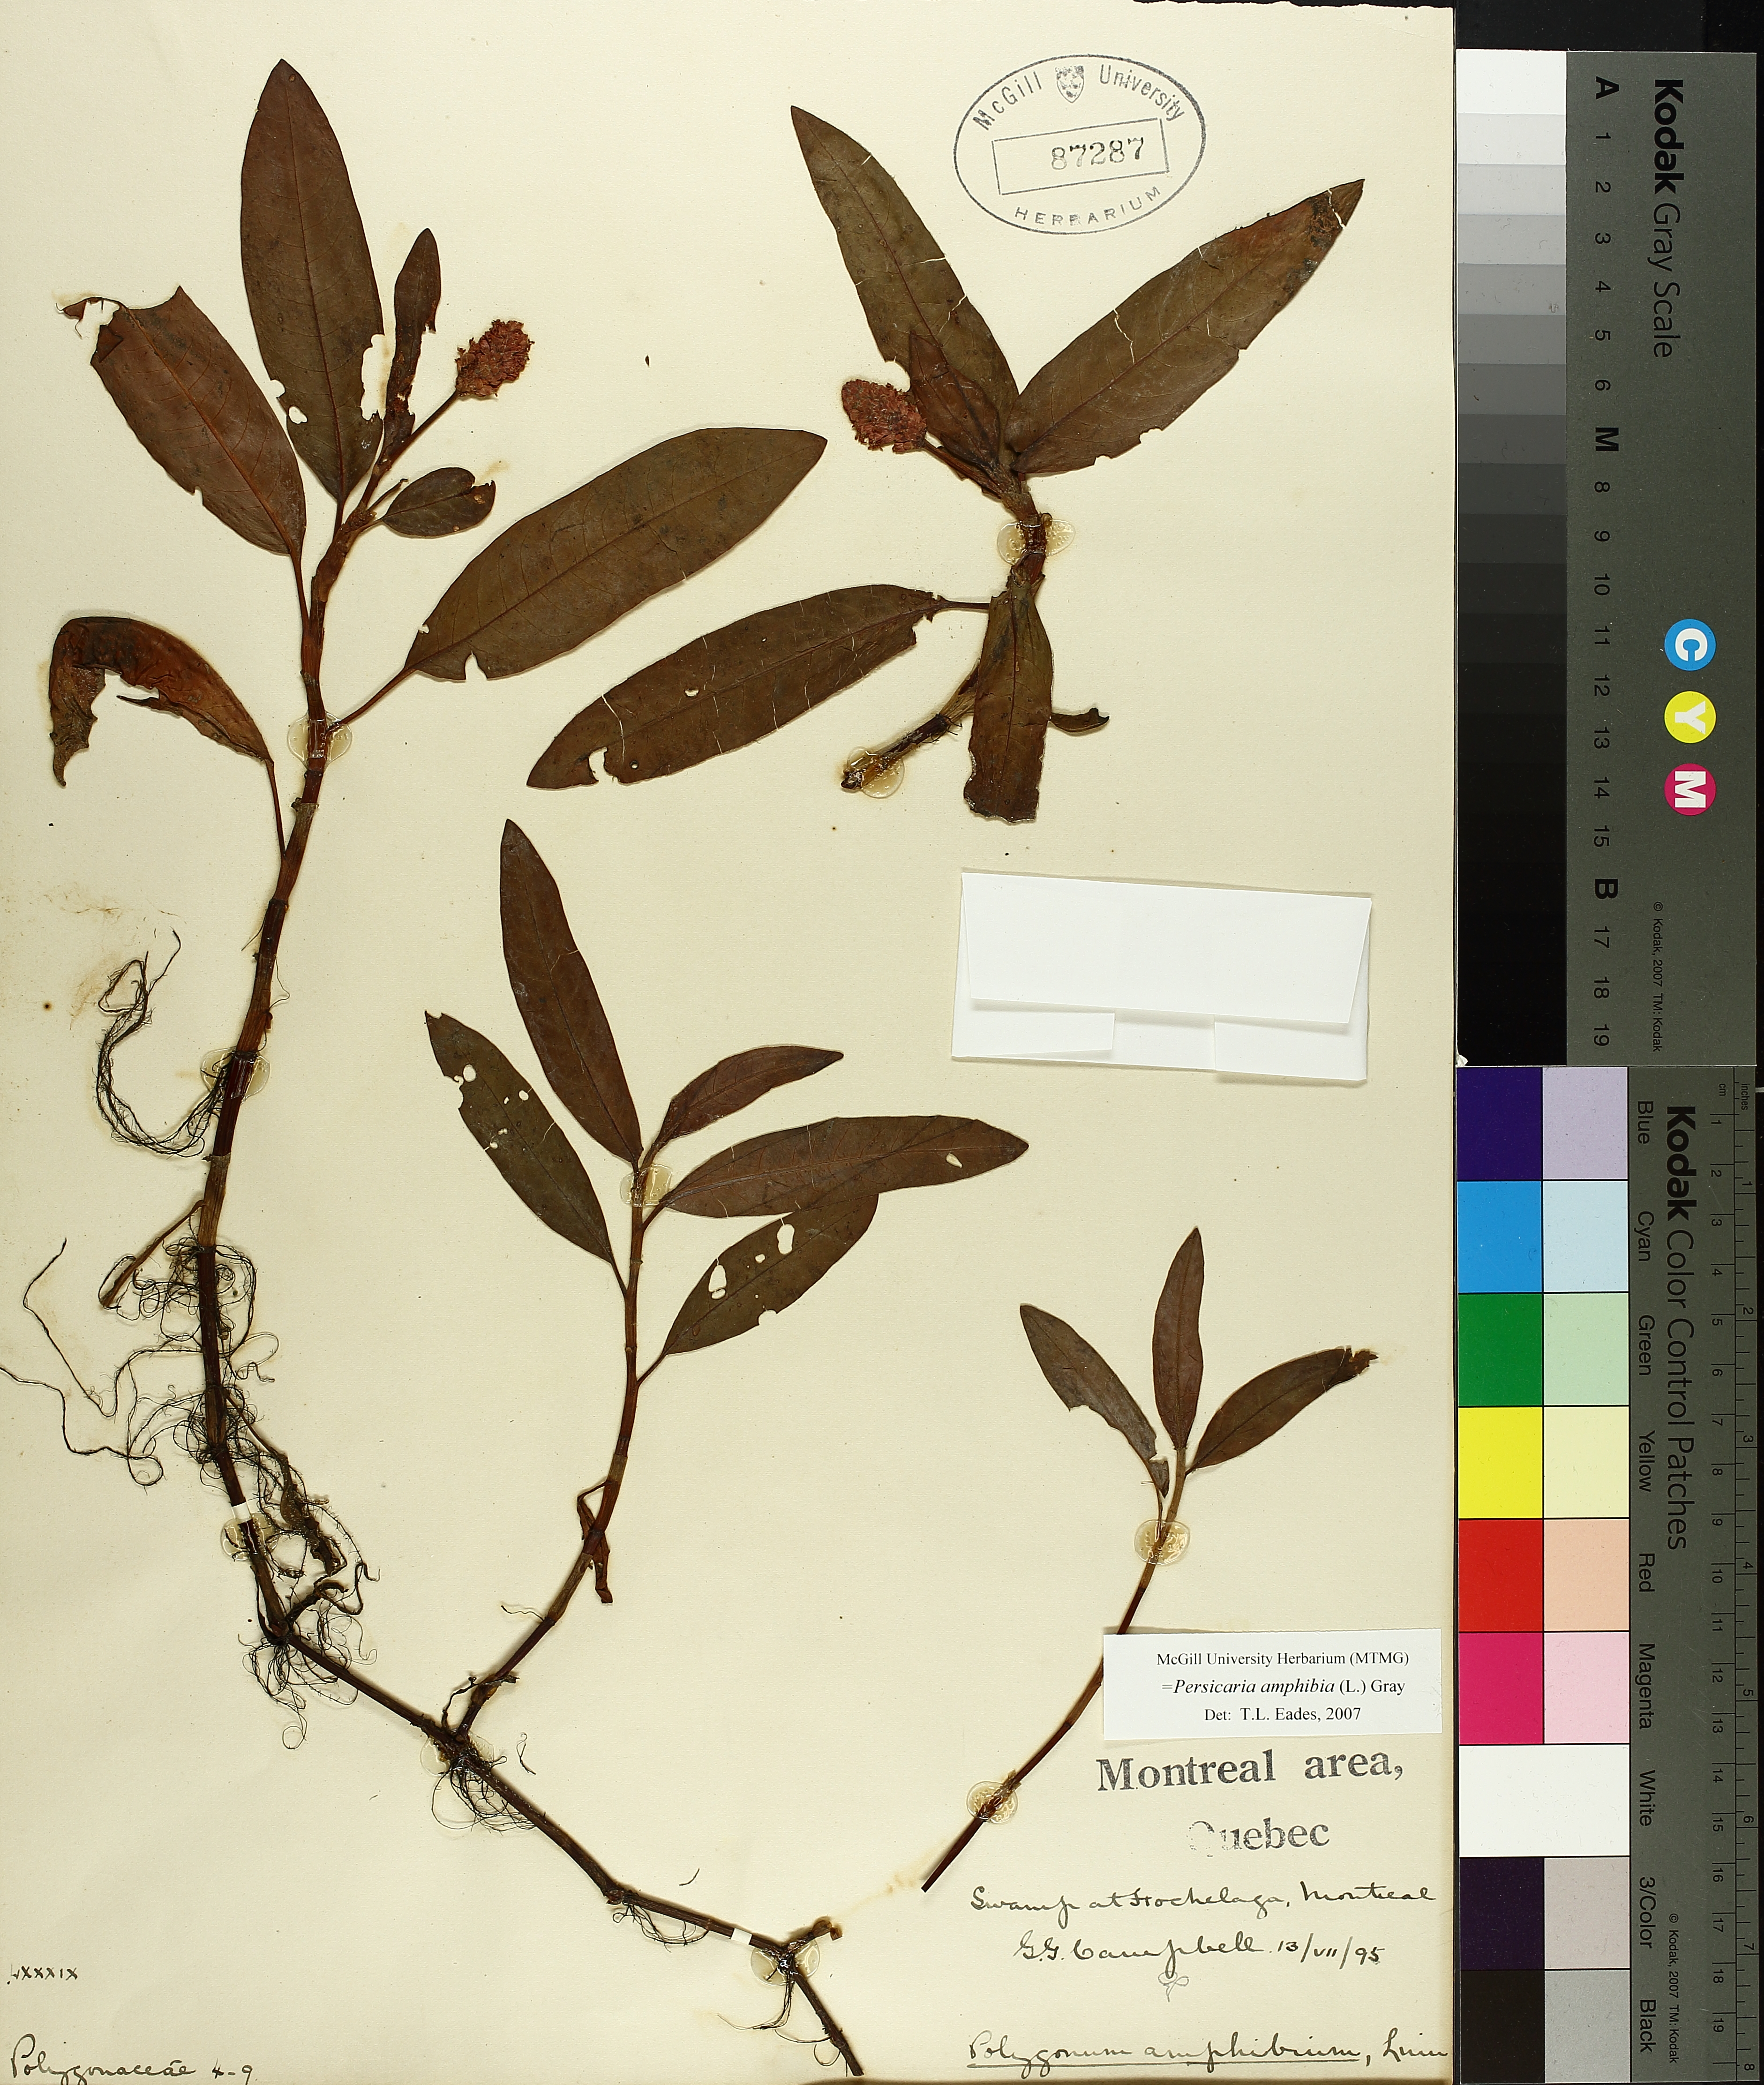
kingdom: Plantae
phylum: Tracheophyta
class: Magnoliopsida
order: Caryophyllales
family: Polygonaceae
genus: Persicaria
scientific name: Persicaria amphibia
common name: Amphibious bistort
